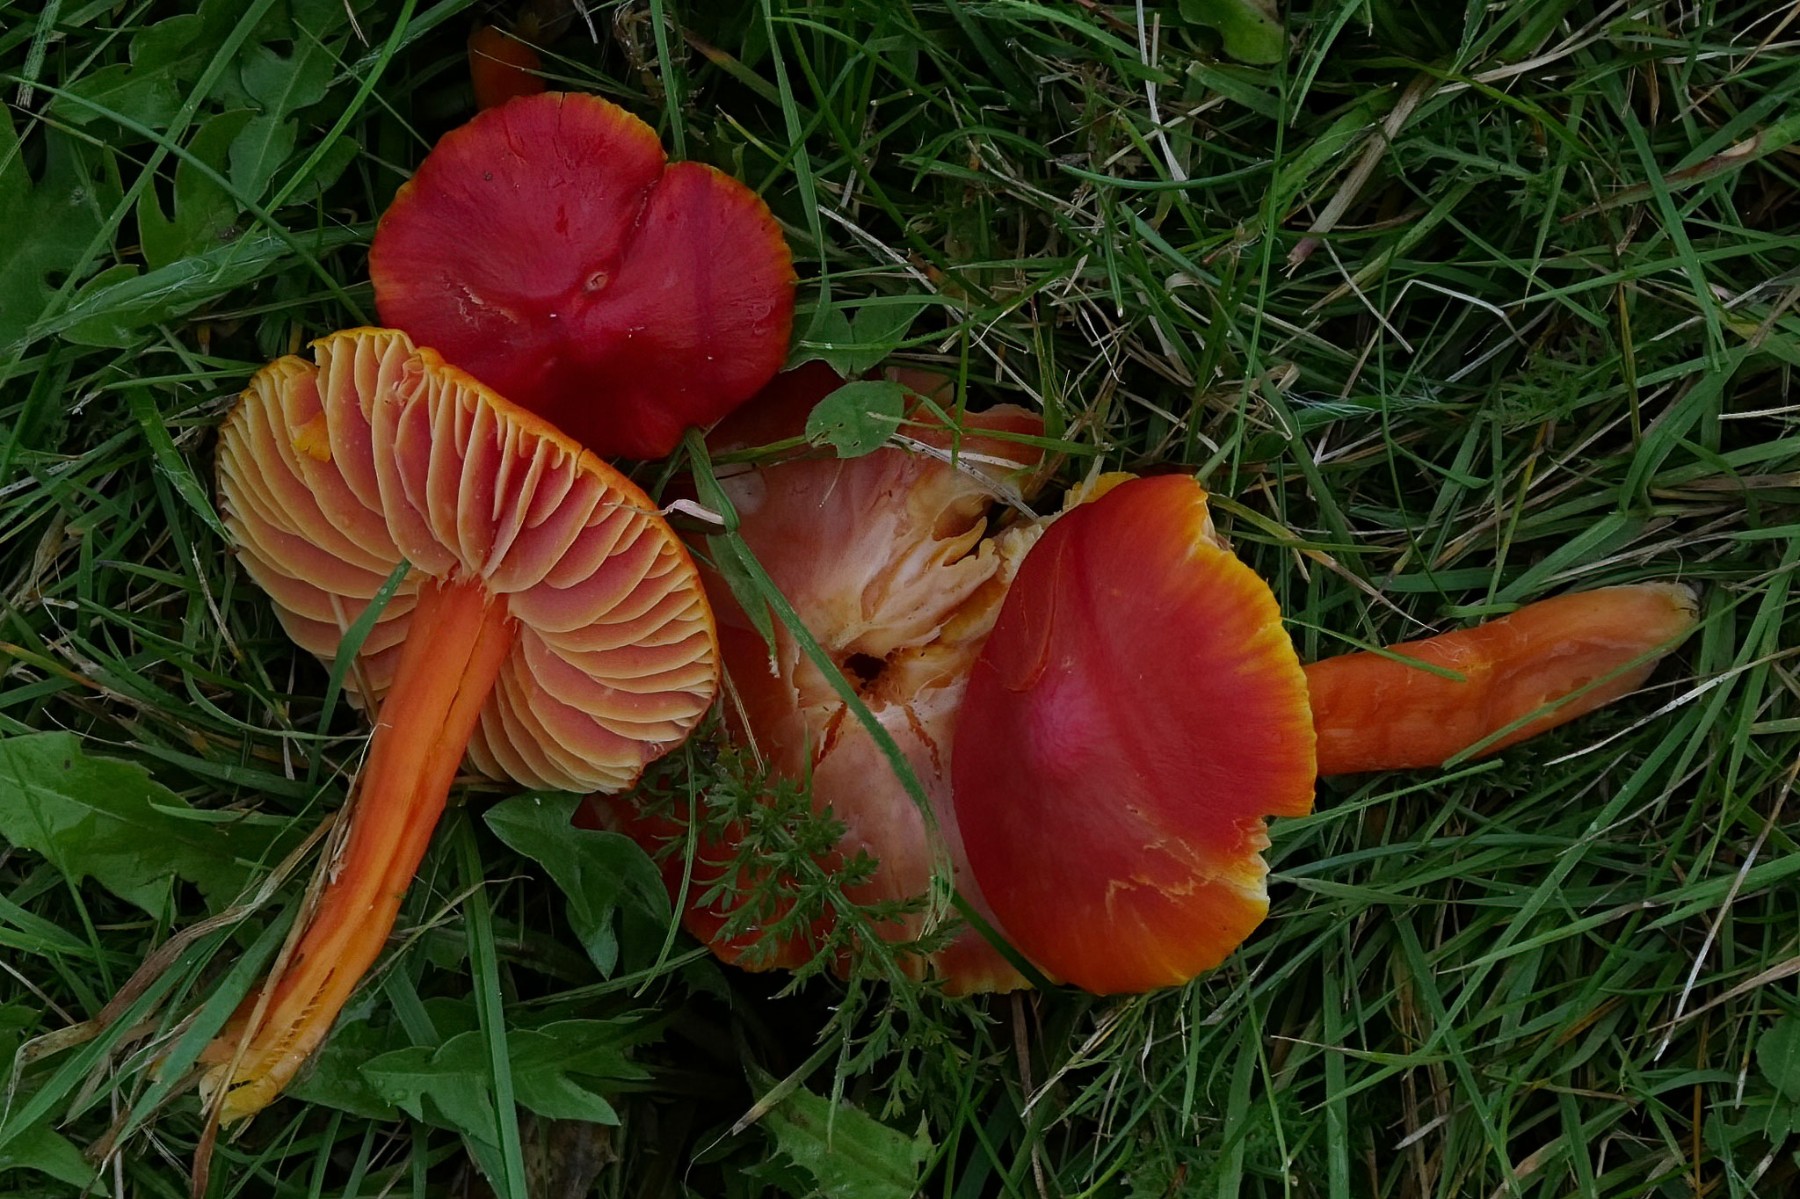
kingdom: Fungi
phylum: Basidiomycota
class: Agaricomycetes
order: Agaricales
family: Hygrophoraceae
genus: Hygrocybe
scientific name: Hygrocybe coccinea
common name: cinnober-vokshat
